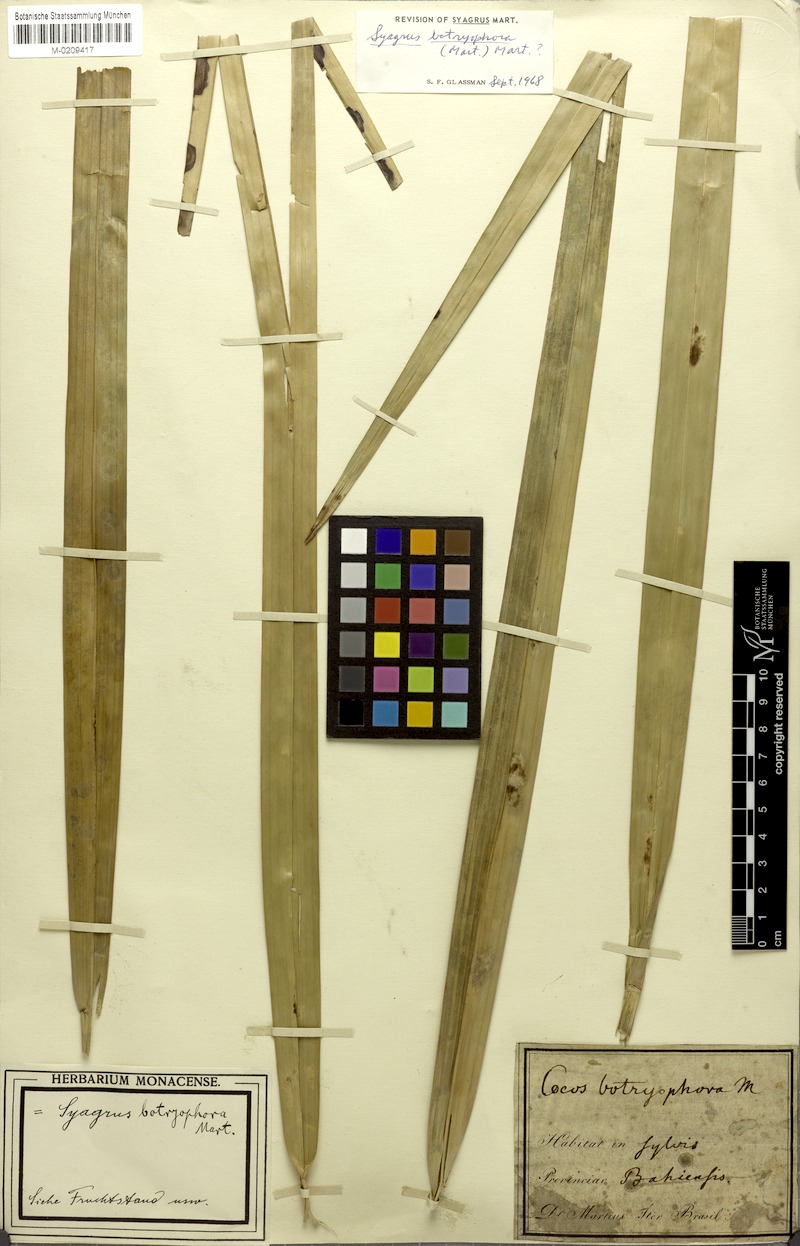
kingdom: Plantae
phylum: Tracheophyta
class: Liliopsida
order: Arecales
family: Arecaceae
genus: Syagrus
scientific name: Syagrus botryophora
